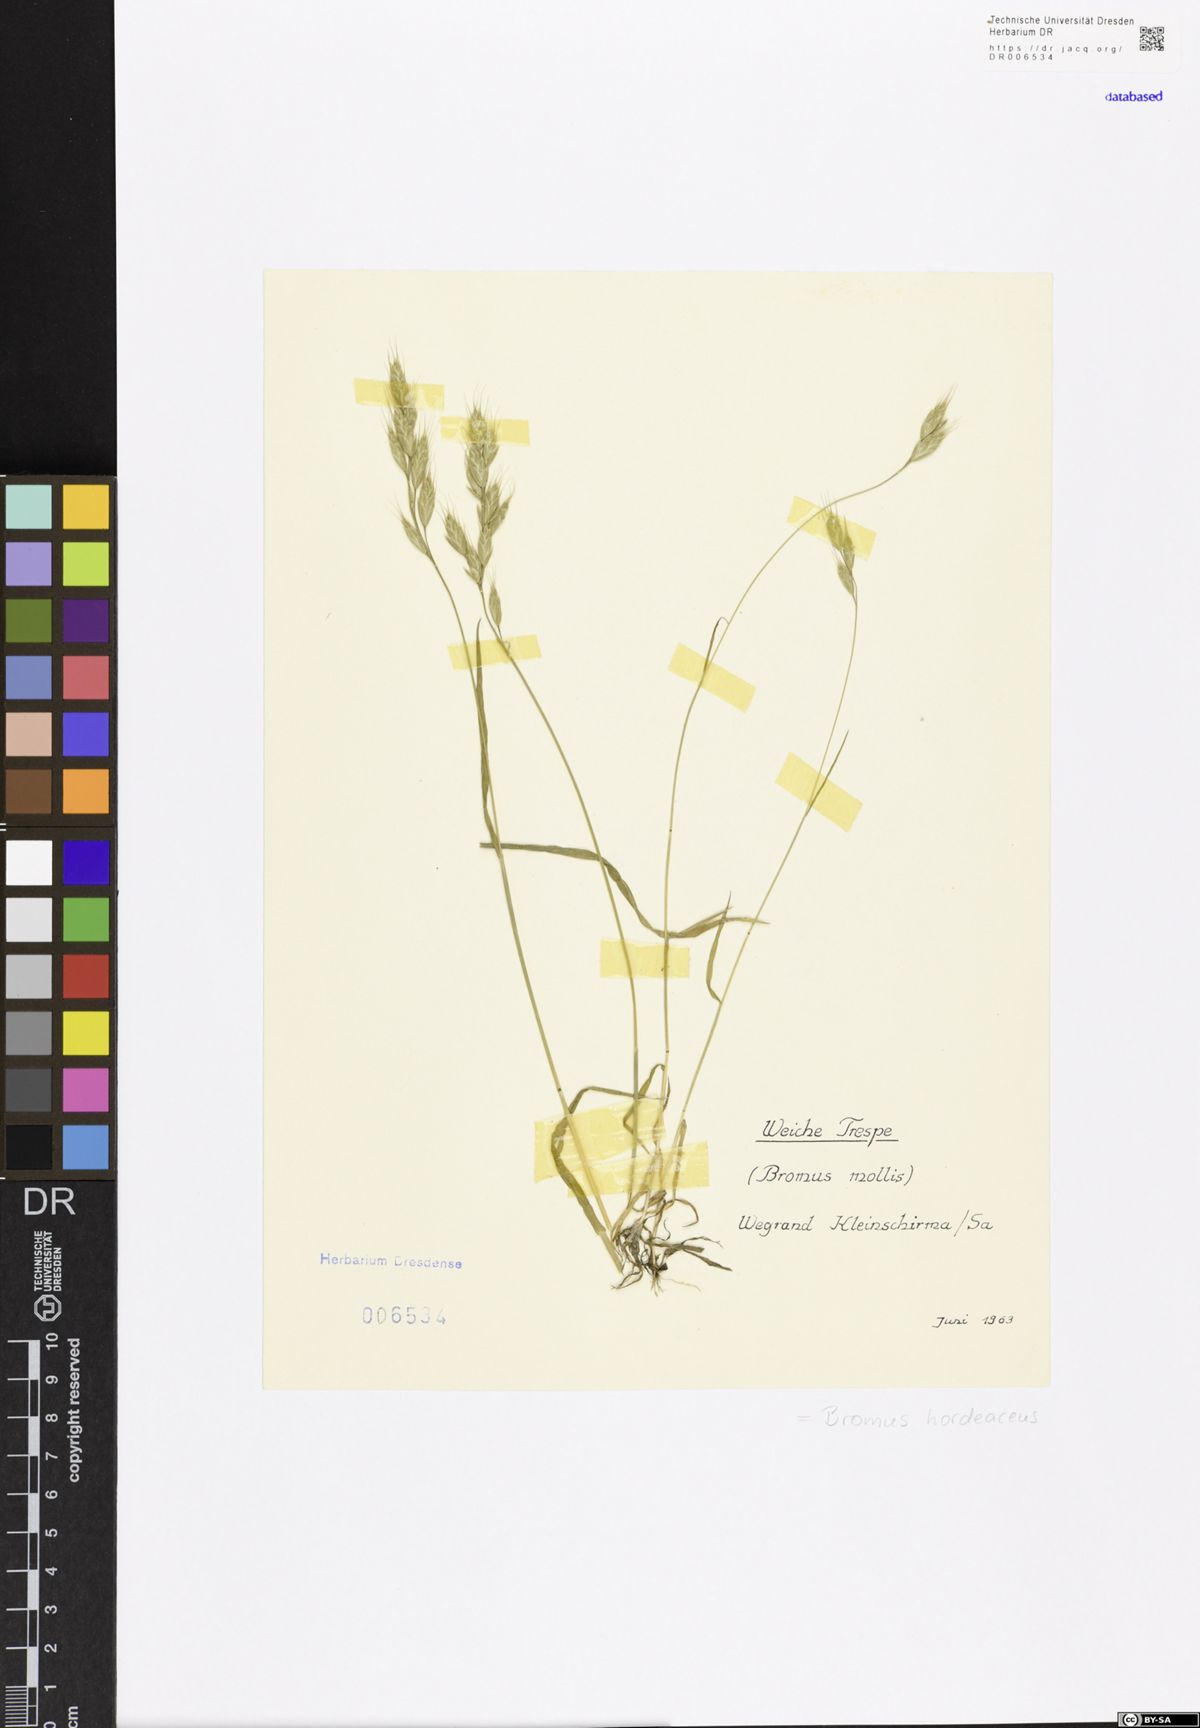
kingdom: Plantae
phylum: Tracheophyta
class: Liliopsida
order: Poales
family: Poaceae
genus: Bromus
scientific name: Bromus hordeaceus
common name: Soft brome
